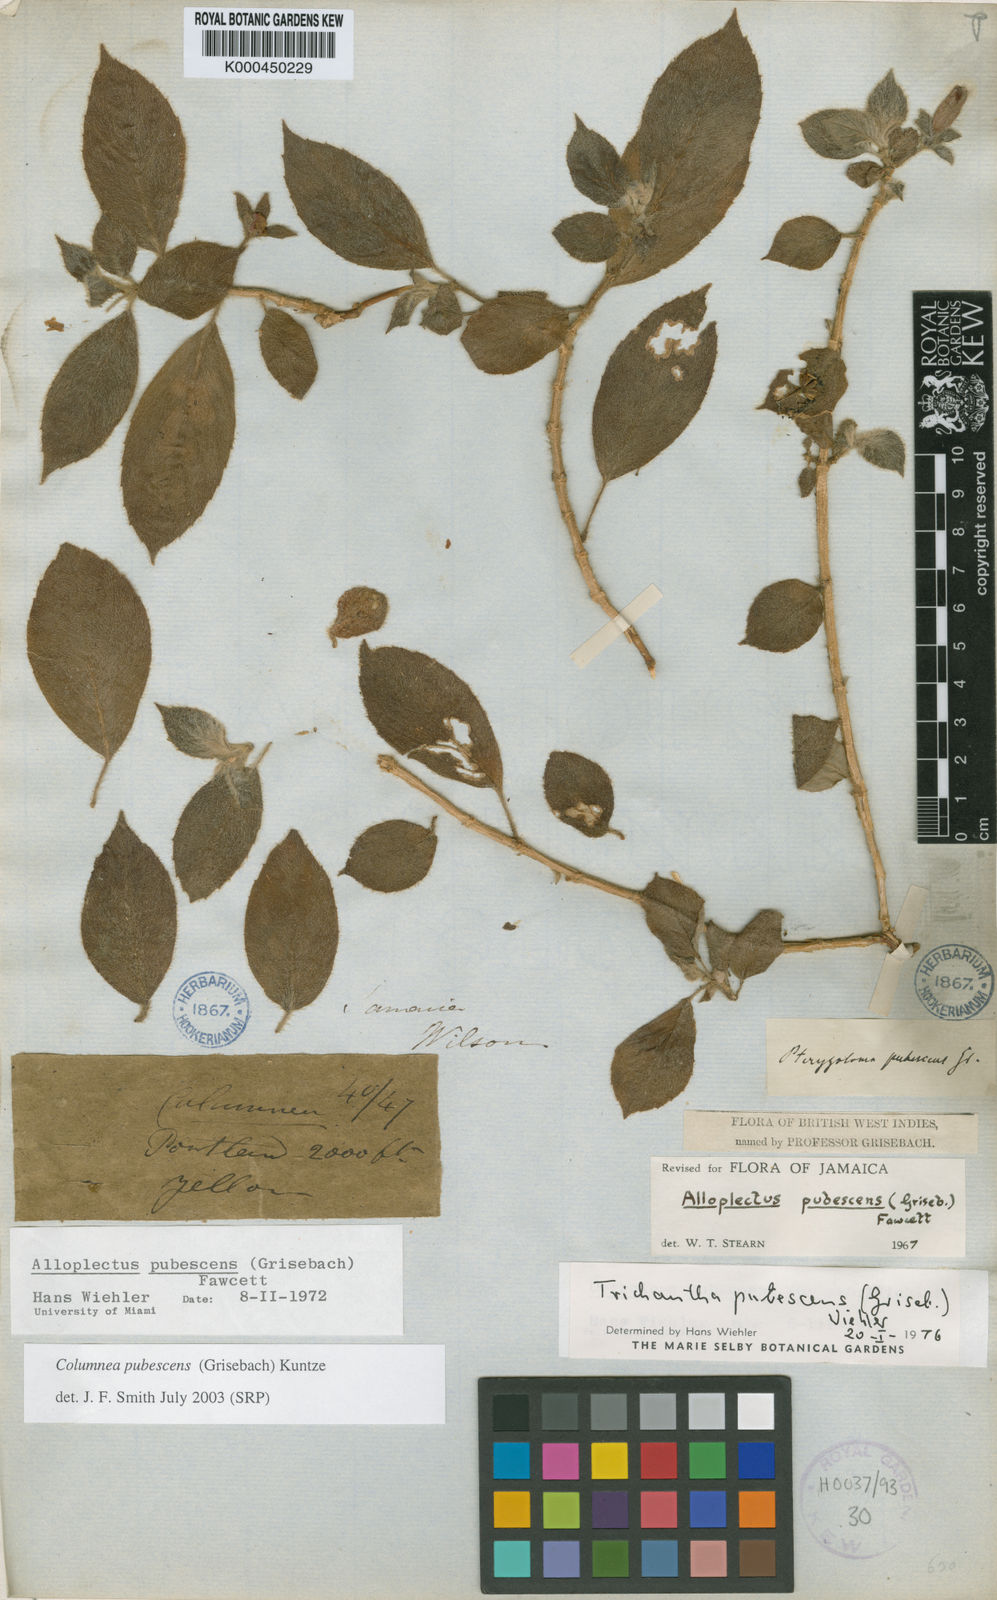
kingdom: Plantae
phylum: Tracheophyta
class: Magnoliopsida
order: Lamiales
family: Gesneriaceae
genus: Columnea
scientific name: Columnea pubescens
